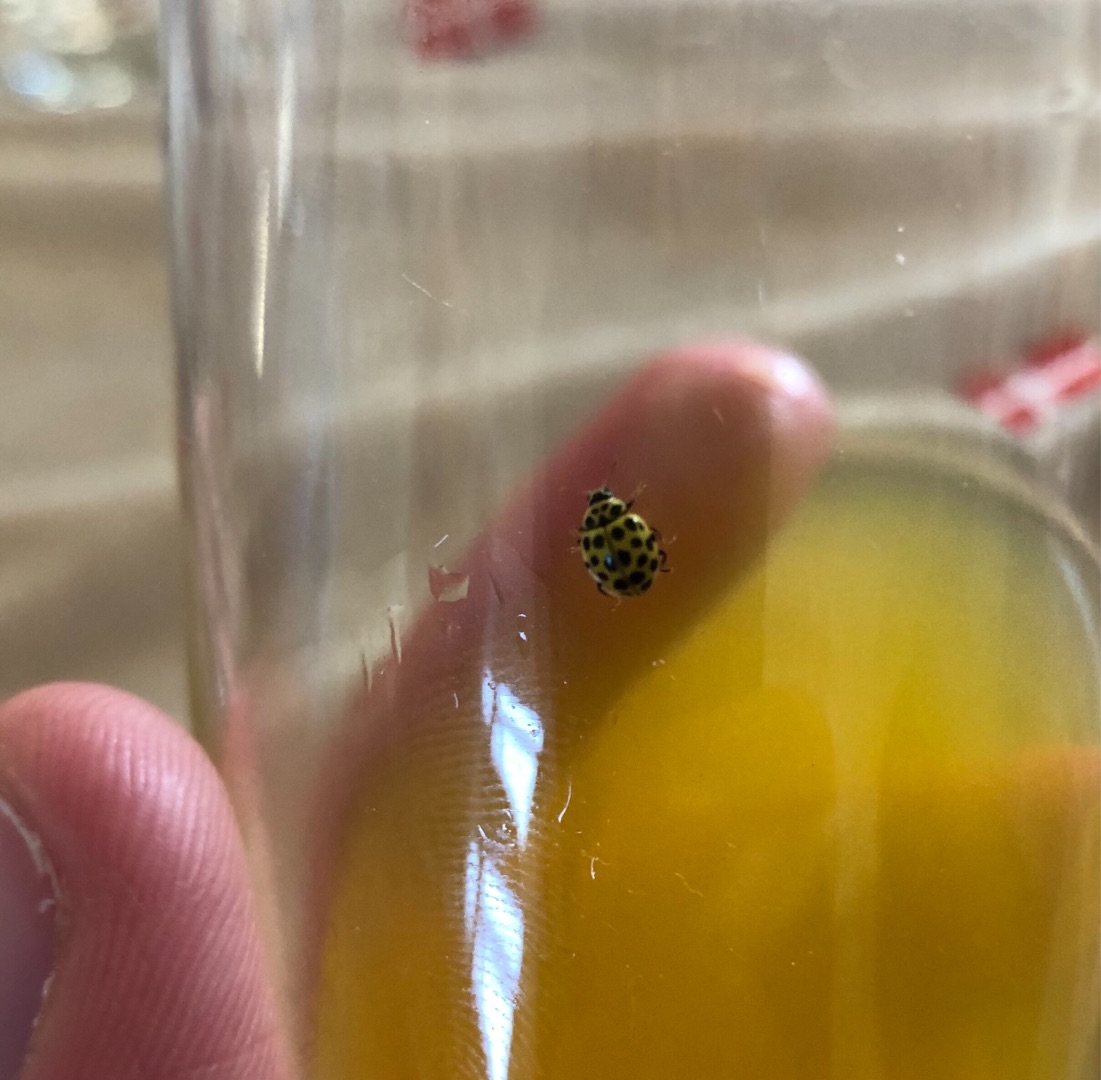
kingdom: Animalia
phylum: Arthropoda
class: Insecta
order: Coleoptera
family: Coccinellidae
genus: Psyllobora
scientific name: Psyllobora vigintiduopunctata
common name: Toogtyveplettet mariehøne
